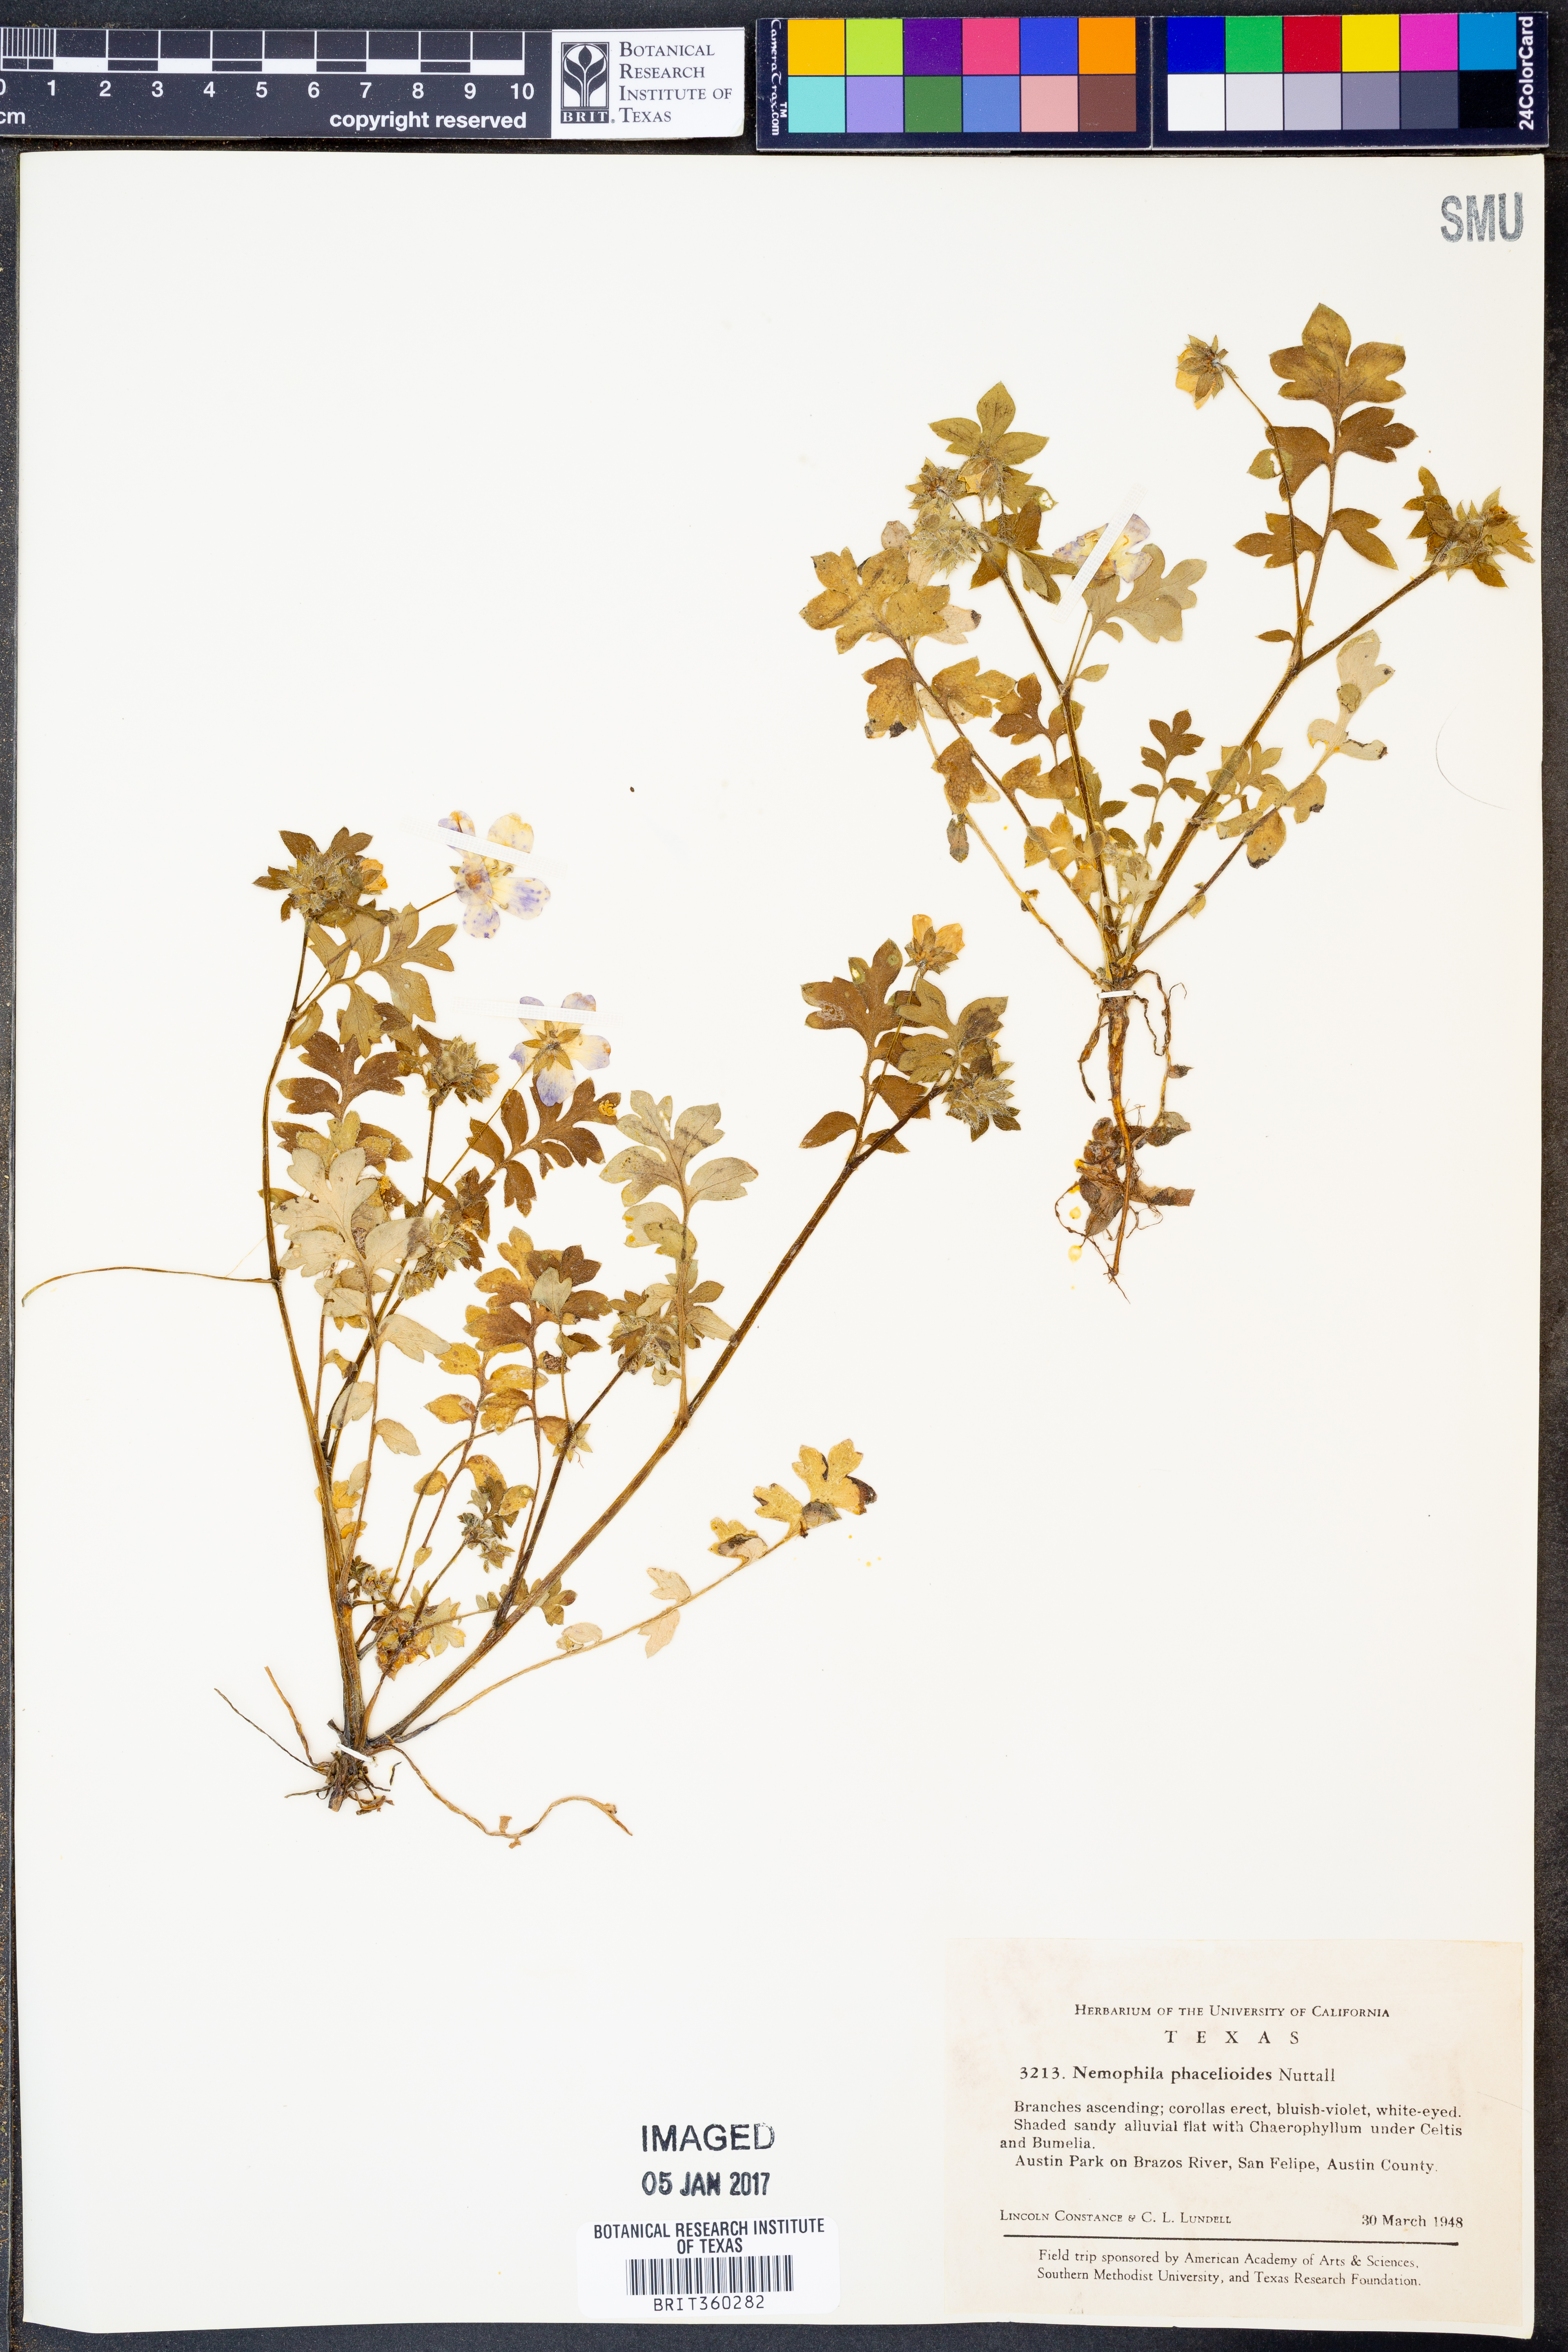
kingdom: Plantae
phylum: Tracheophyta
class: Magnoliopsida
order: Boraginales
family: Hydrophyllaceae
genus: Nemophila
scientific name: Nemophila phacelioides
